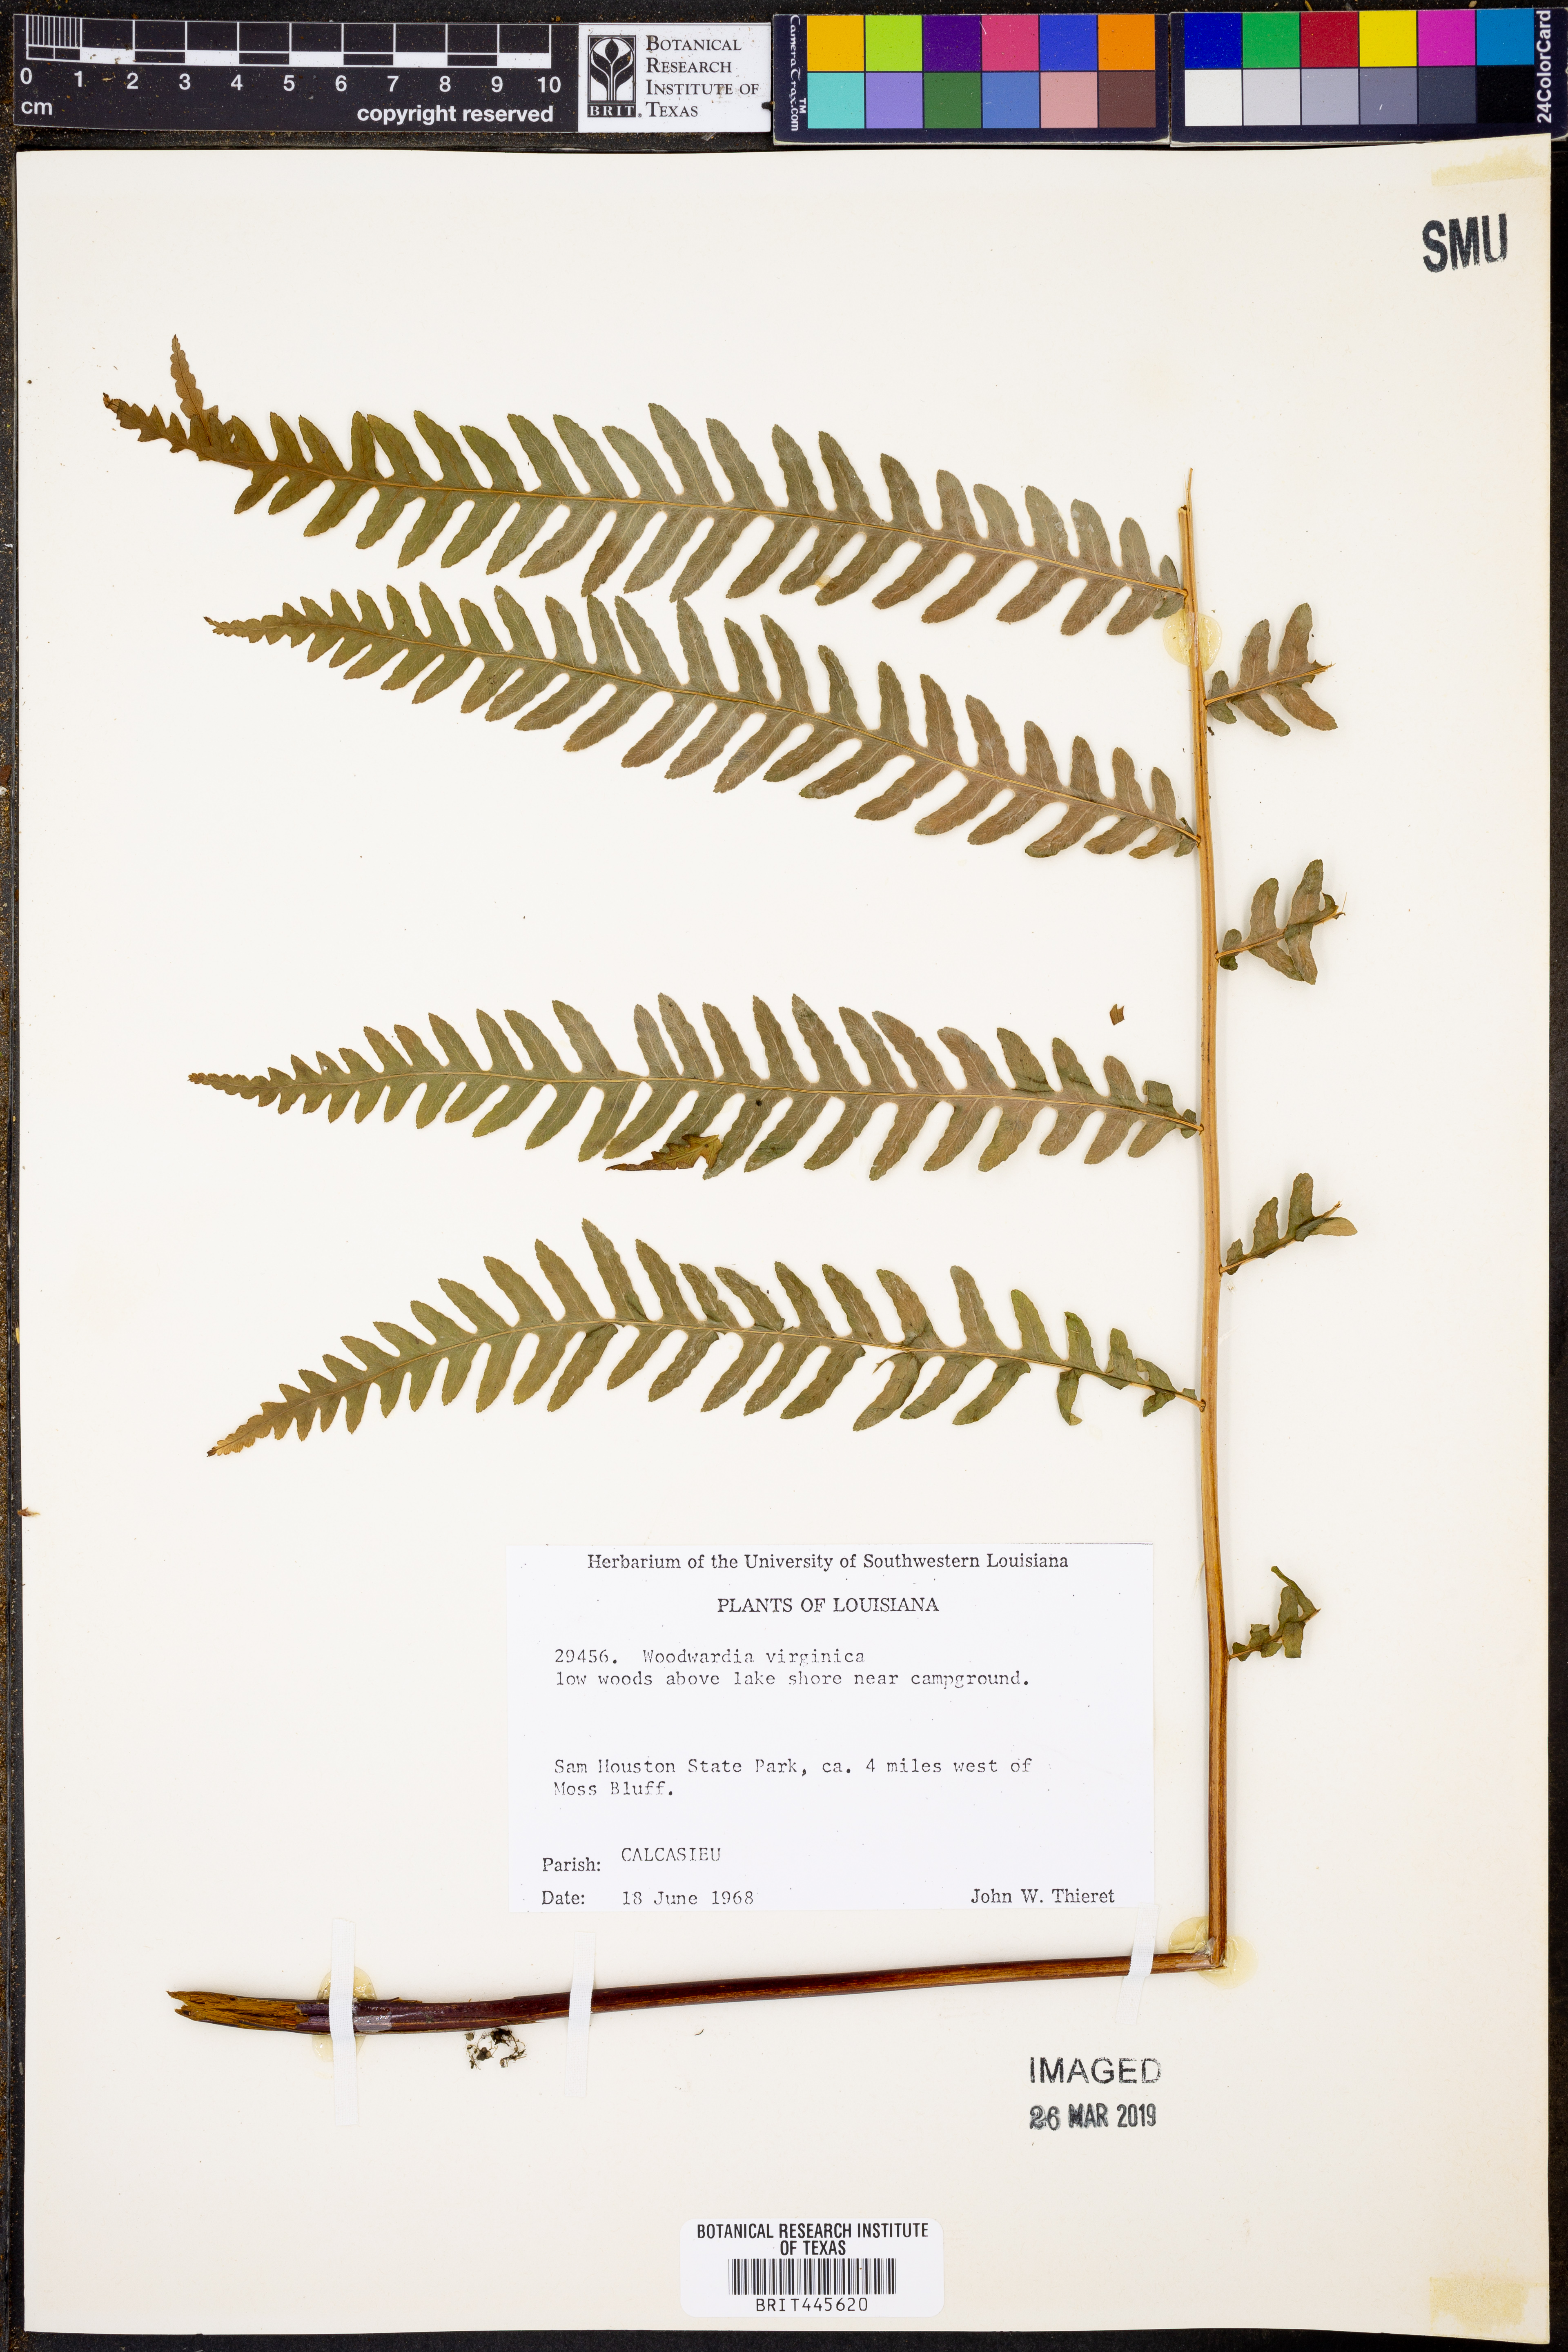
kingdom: Plantae
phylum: Tracheophyta
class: Polypodiopsida
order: Polypodiales
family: Blechnaceae
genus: Anchistea
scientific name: Anchistea virginica
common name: Virginia chain fern
